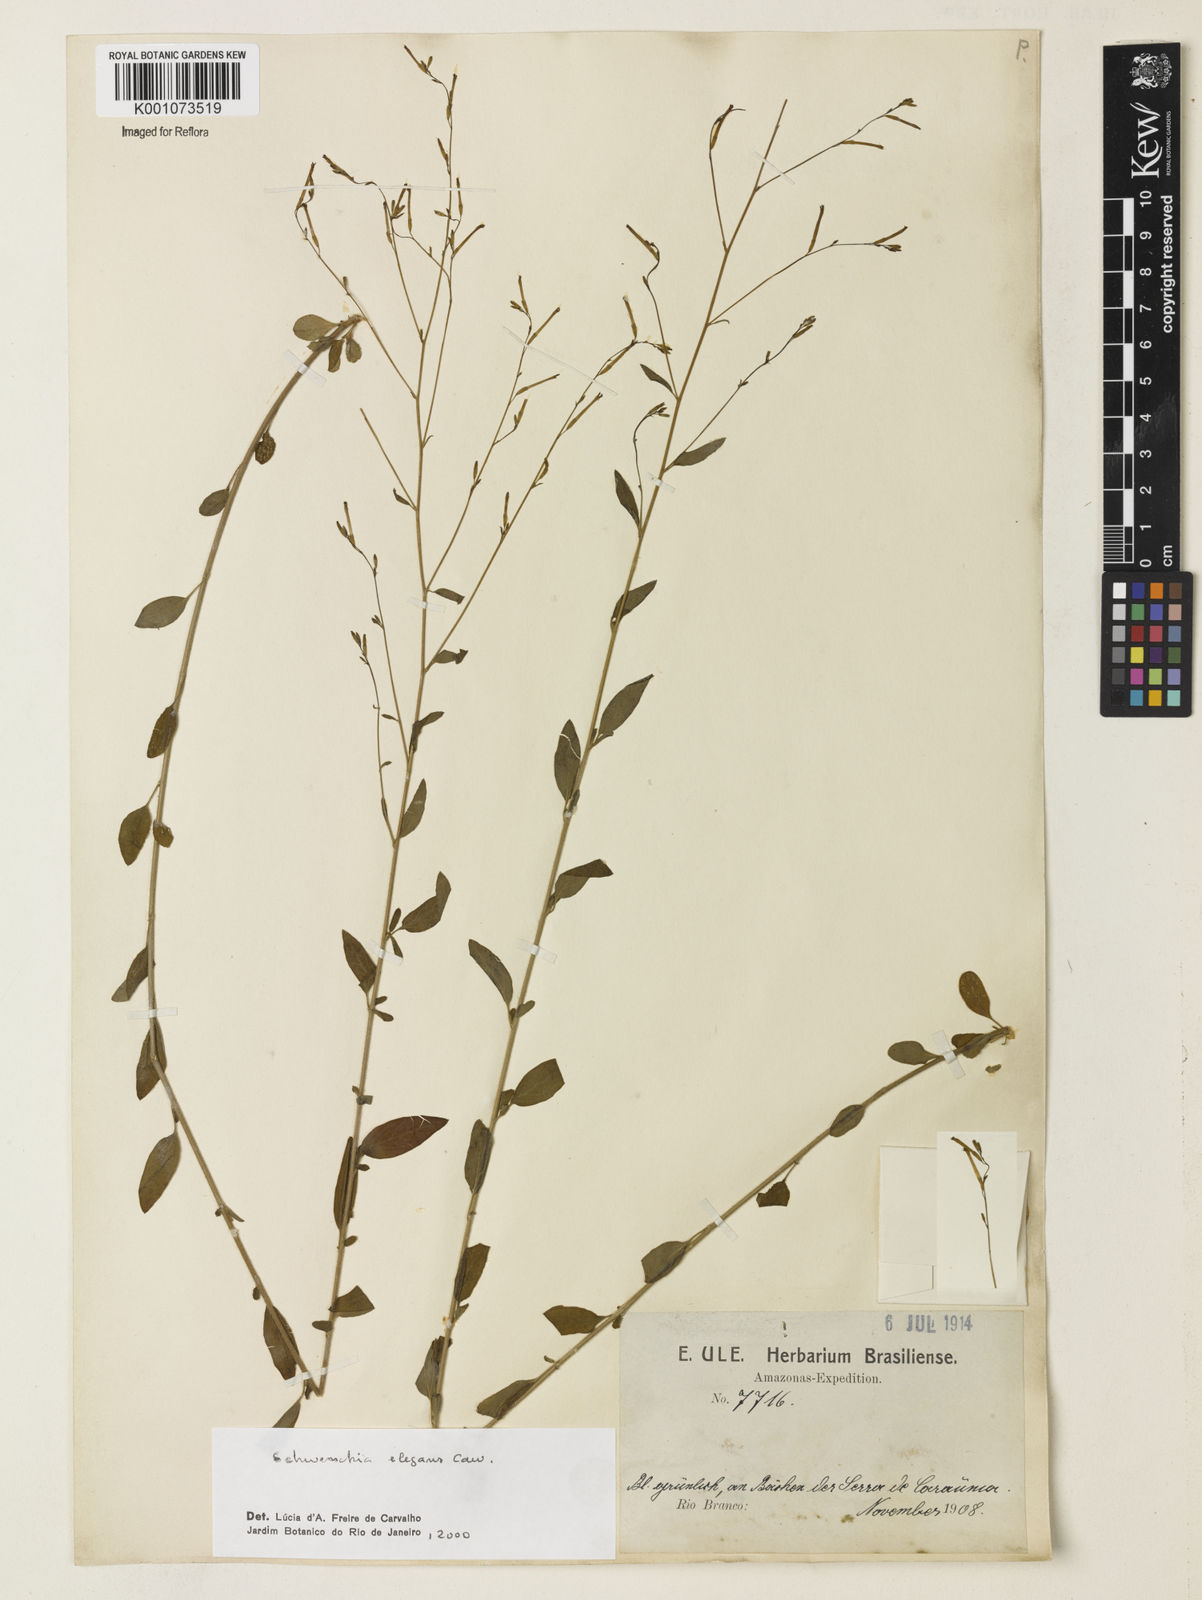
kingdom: Plantae
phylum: Tracheophyta
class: Magnoliopsida
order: Solanales
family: Solanaceae
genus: Schwenckia
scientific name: Schwenckia elegans
